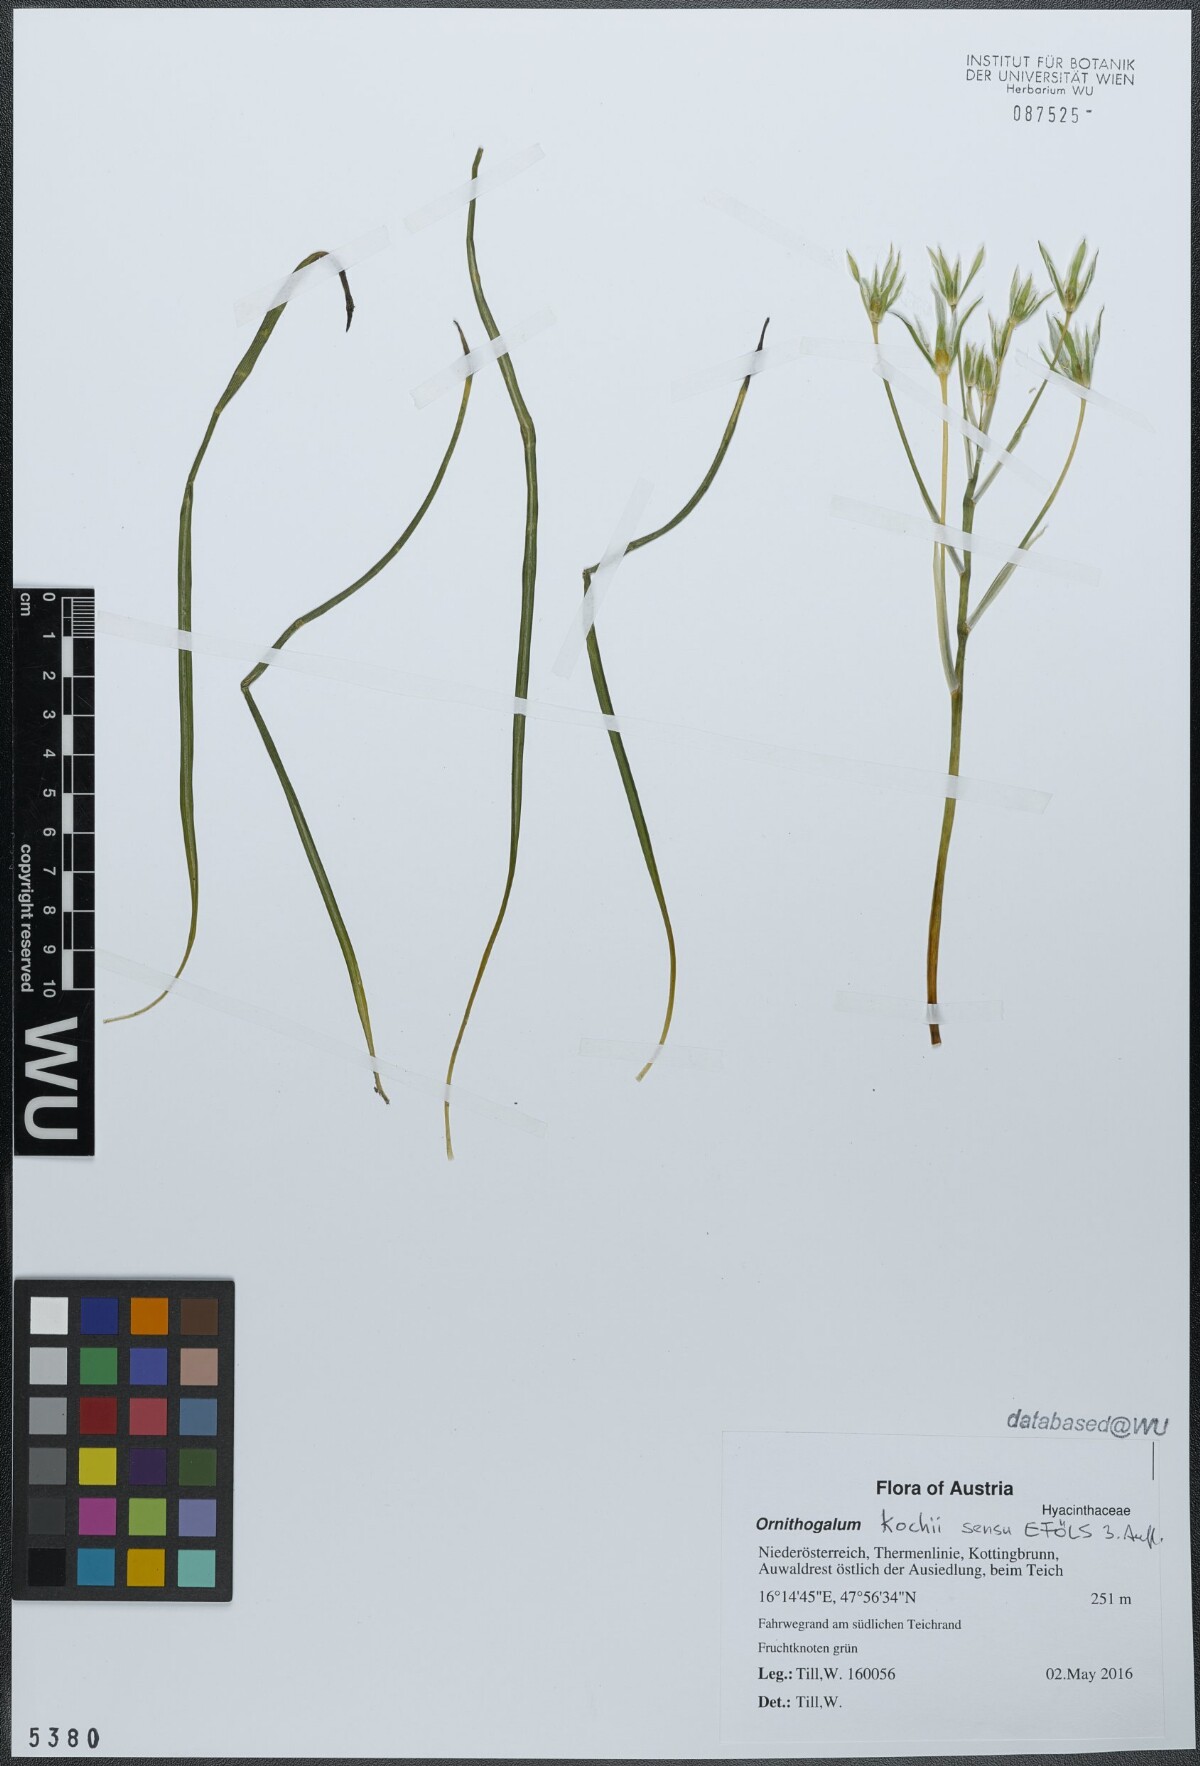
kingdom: Plantae
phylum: Tracheophyta
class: Liliopsida
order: Asparagales
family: Asparagaceae
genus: Ornithogalum
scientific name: Ornithogalum orthophyllum
